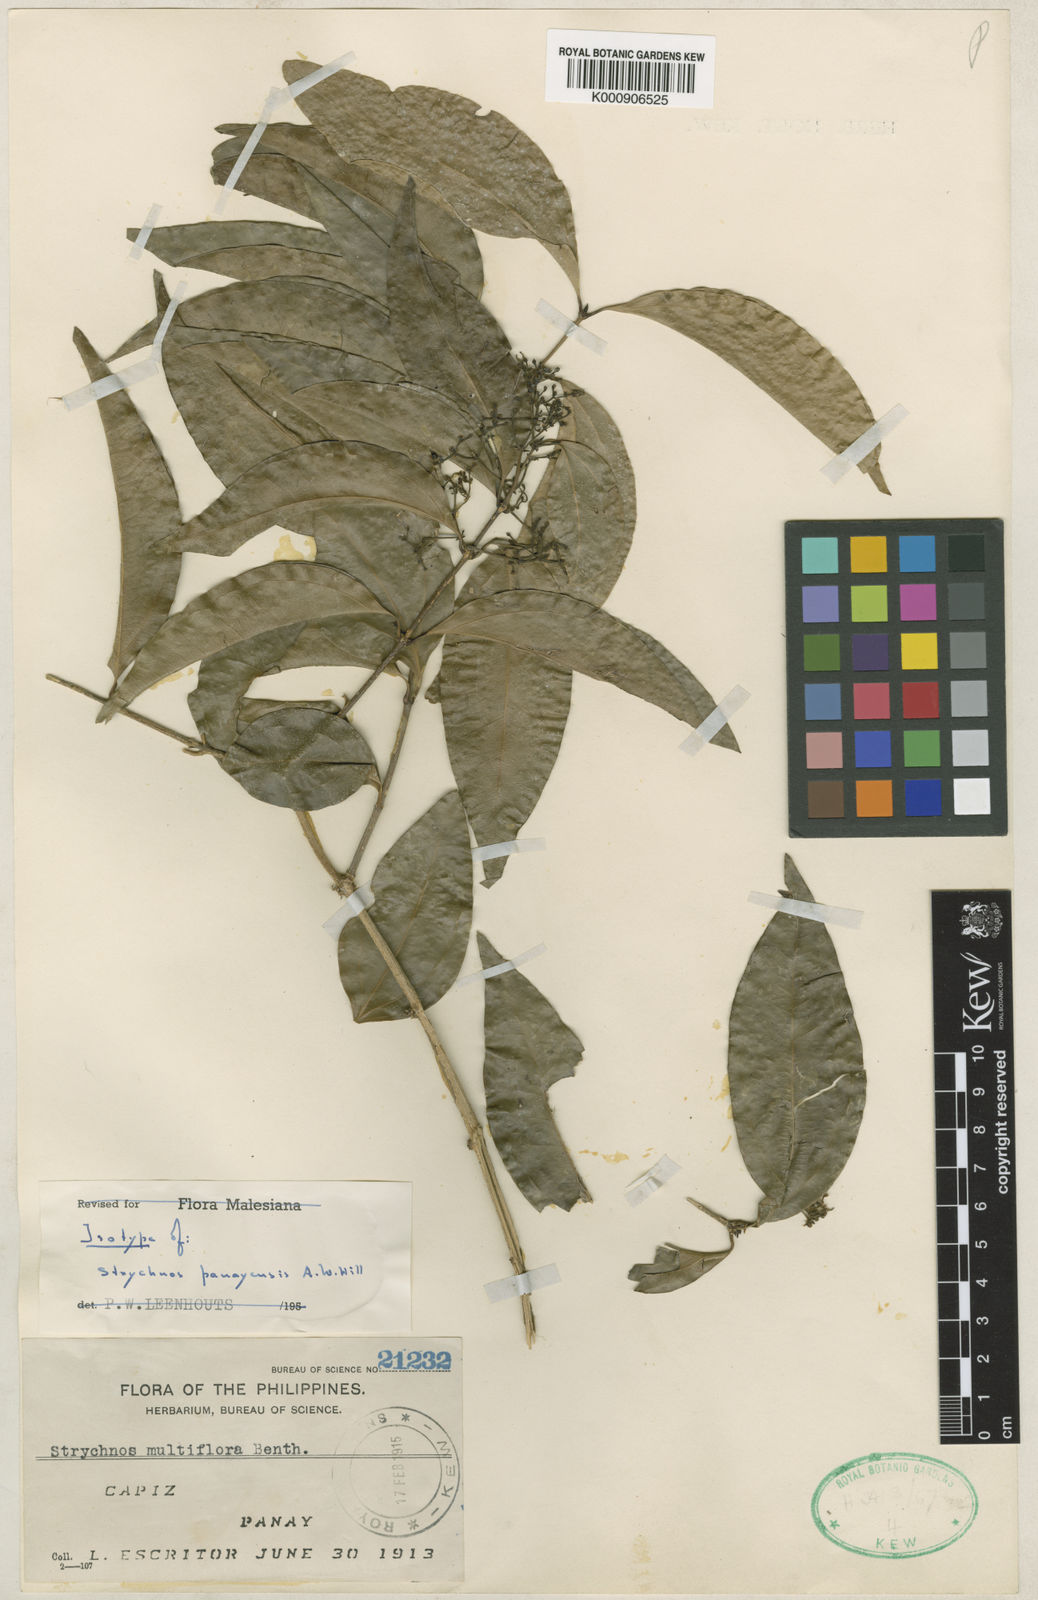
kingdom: Plantae
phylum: Tracheophyta
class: Magnoliopsida
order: Gentianales
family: Loganiaceae
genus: Strychnos
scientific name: Strychnos ovata
